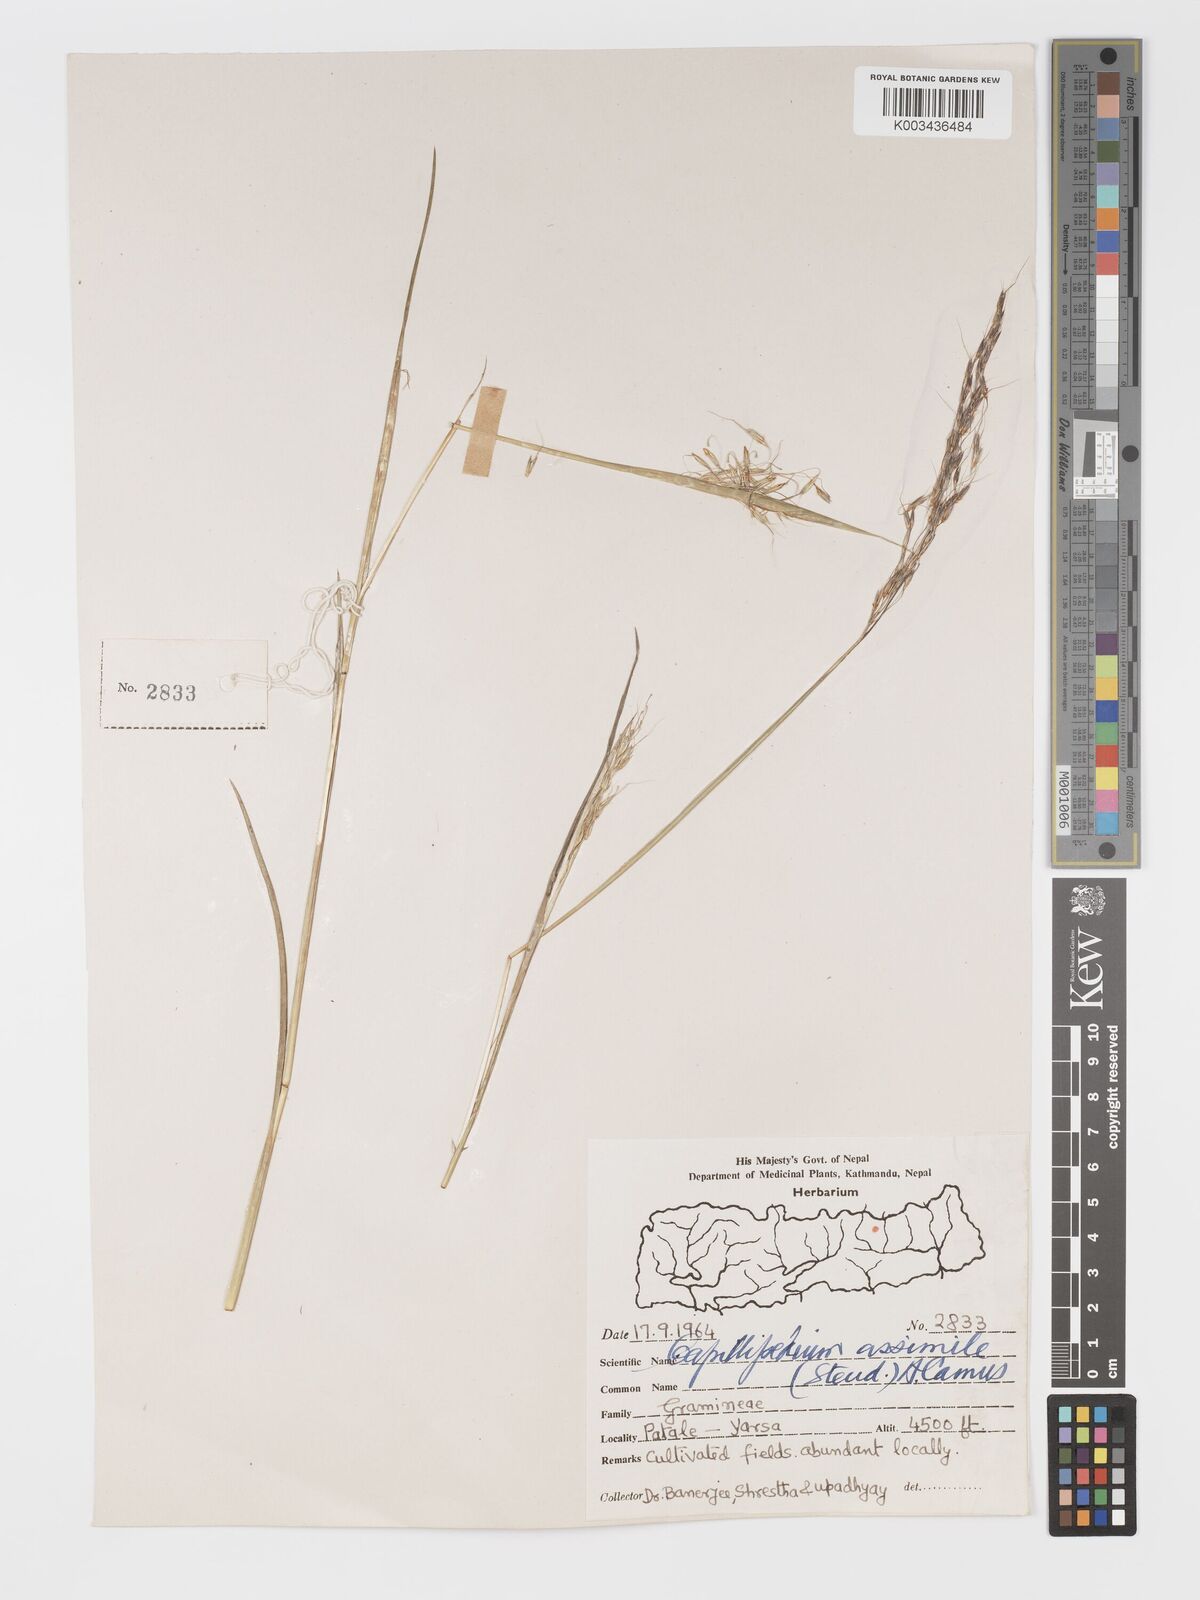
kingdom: Plantae
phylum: Tracheophyta
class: Liliopsida
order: Poales
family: Poaceae
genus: Chrysopogon
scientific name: Chrysopogon
